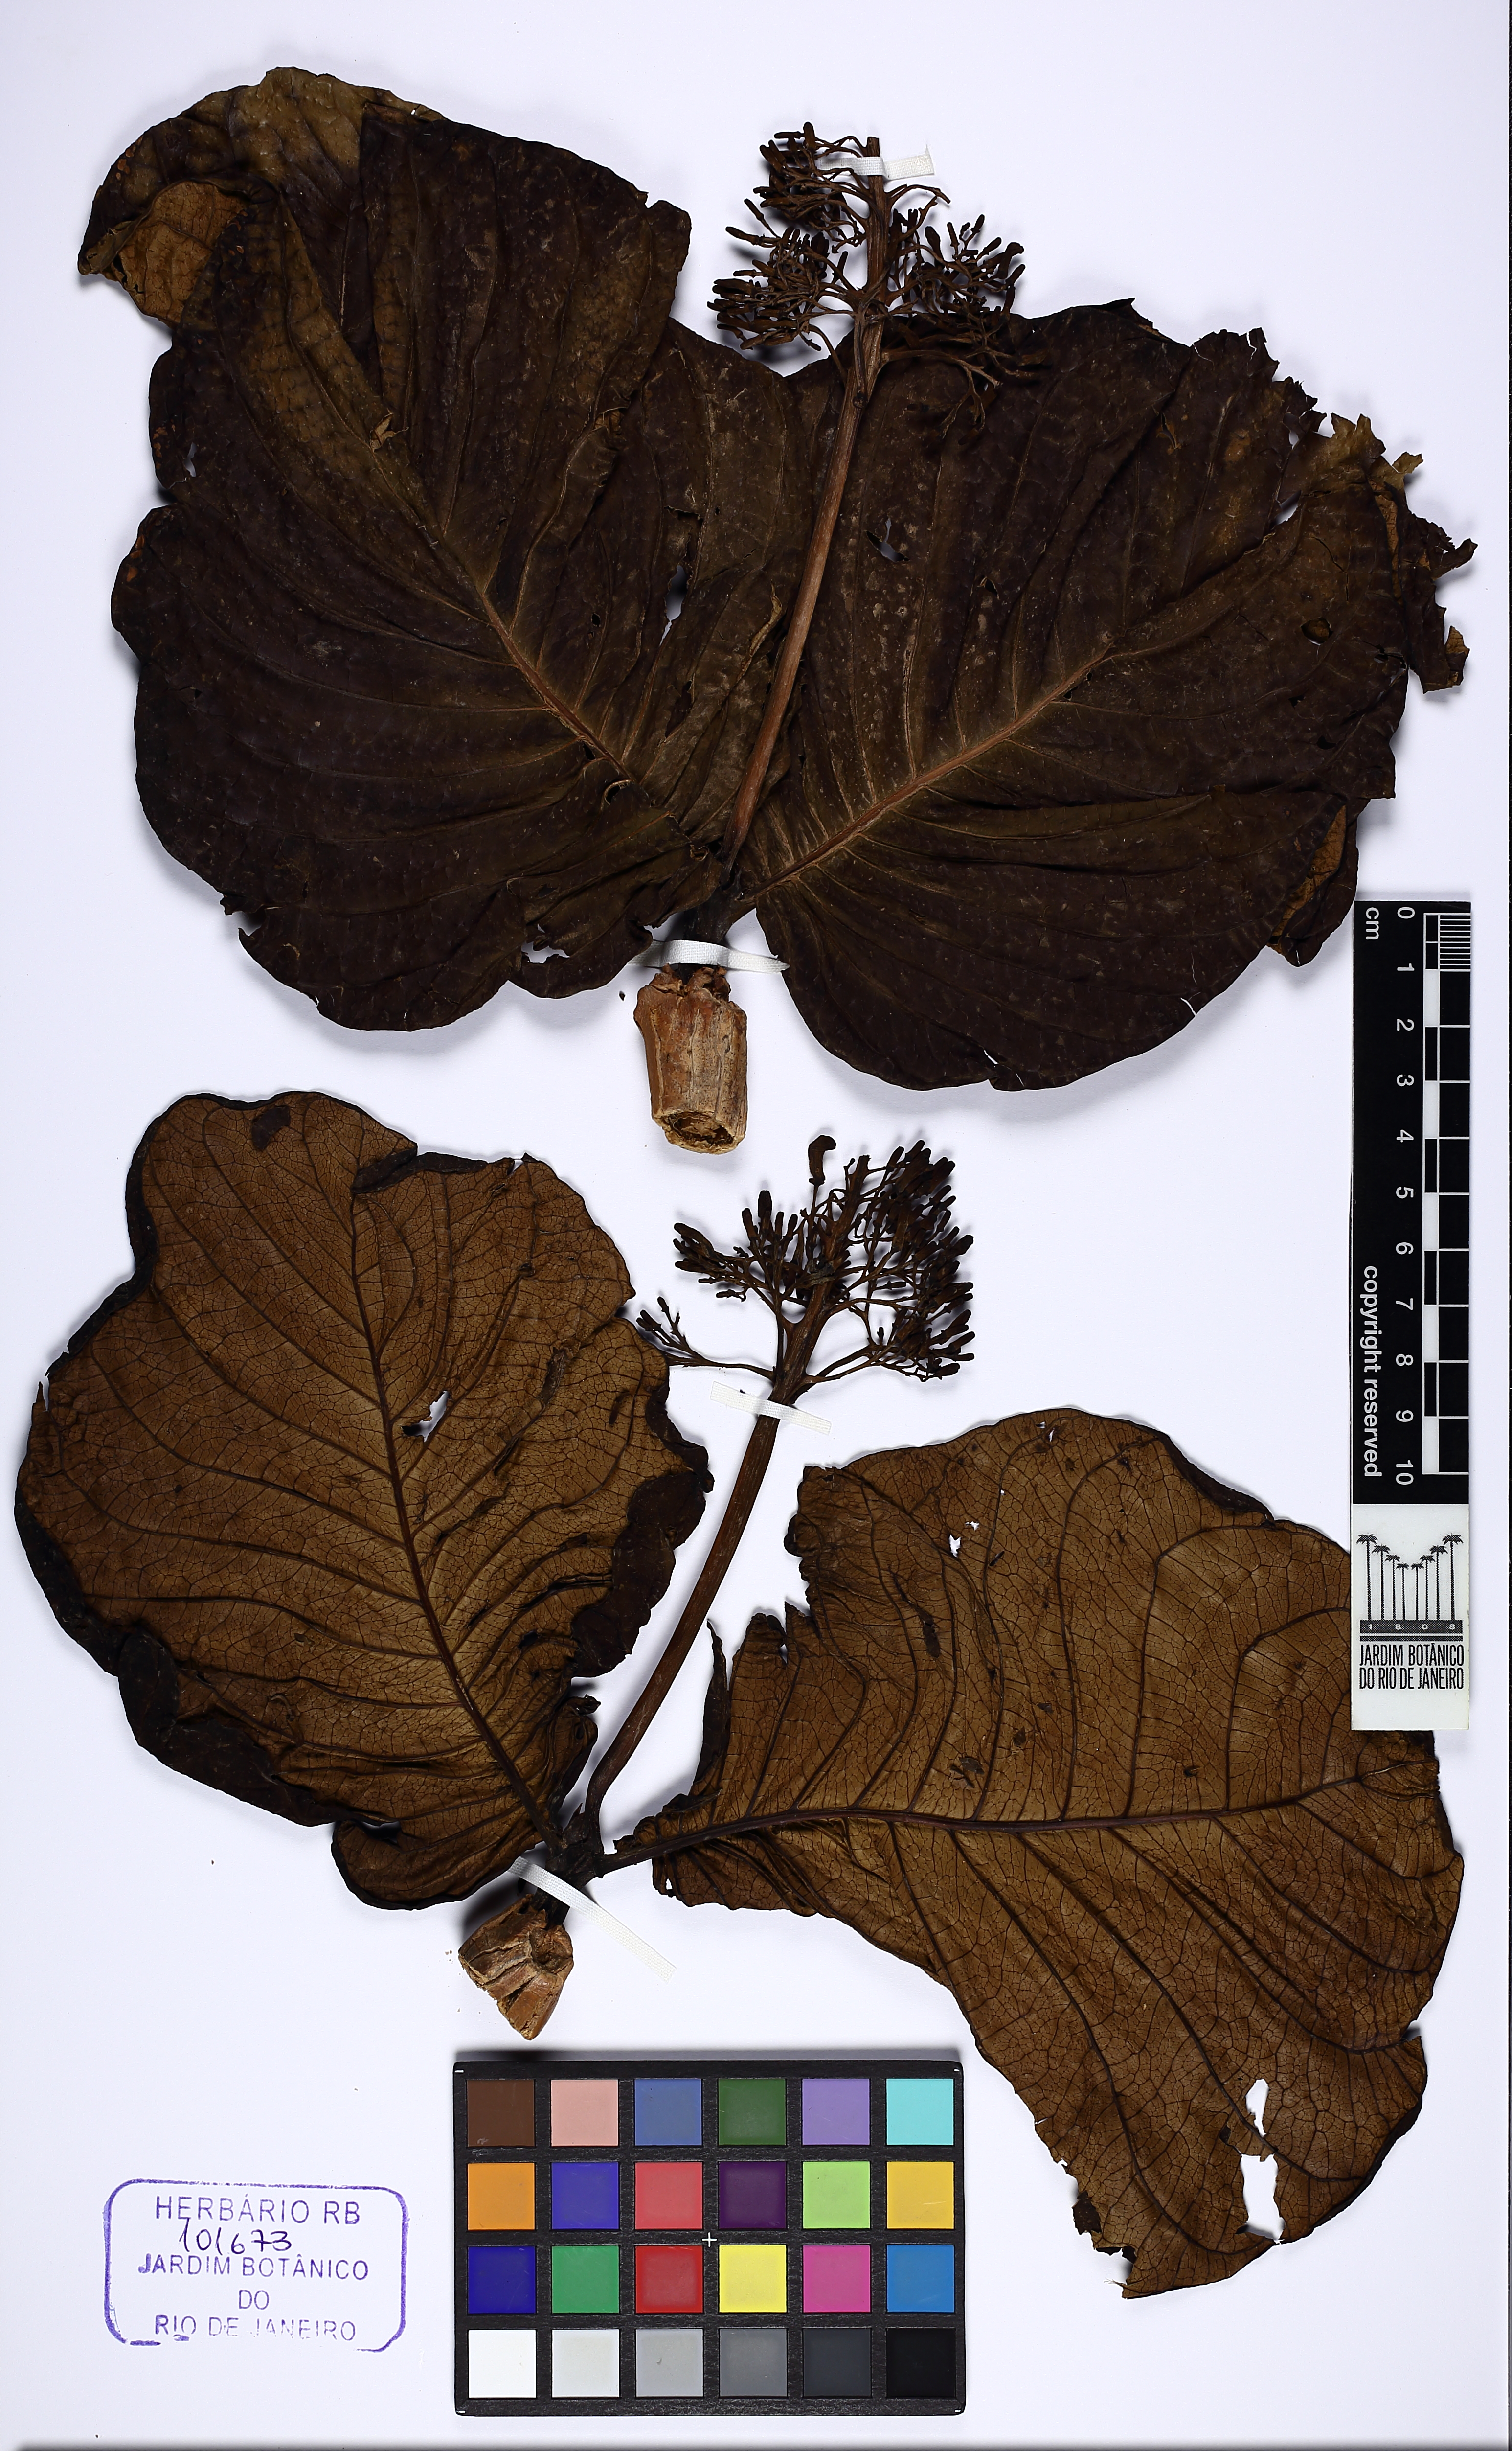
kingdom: Plantae
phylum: Tracheophyta
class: Magnoliopsida
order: Gentianales
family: Rubiaceae
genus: Palicourea
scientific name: Palicourea rigida
